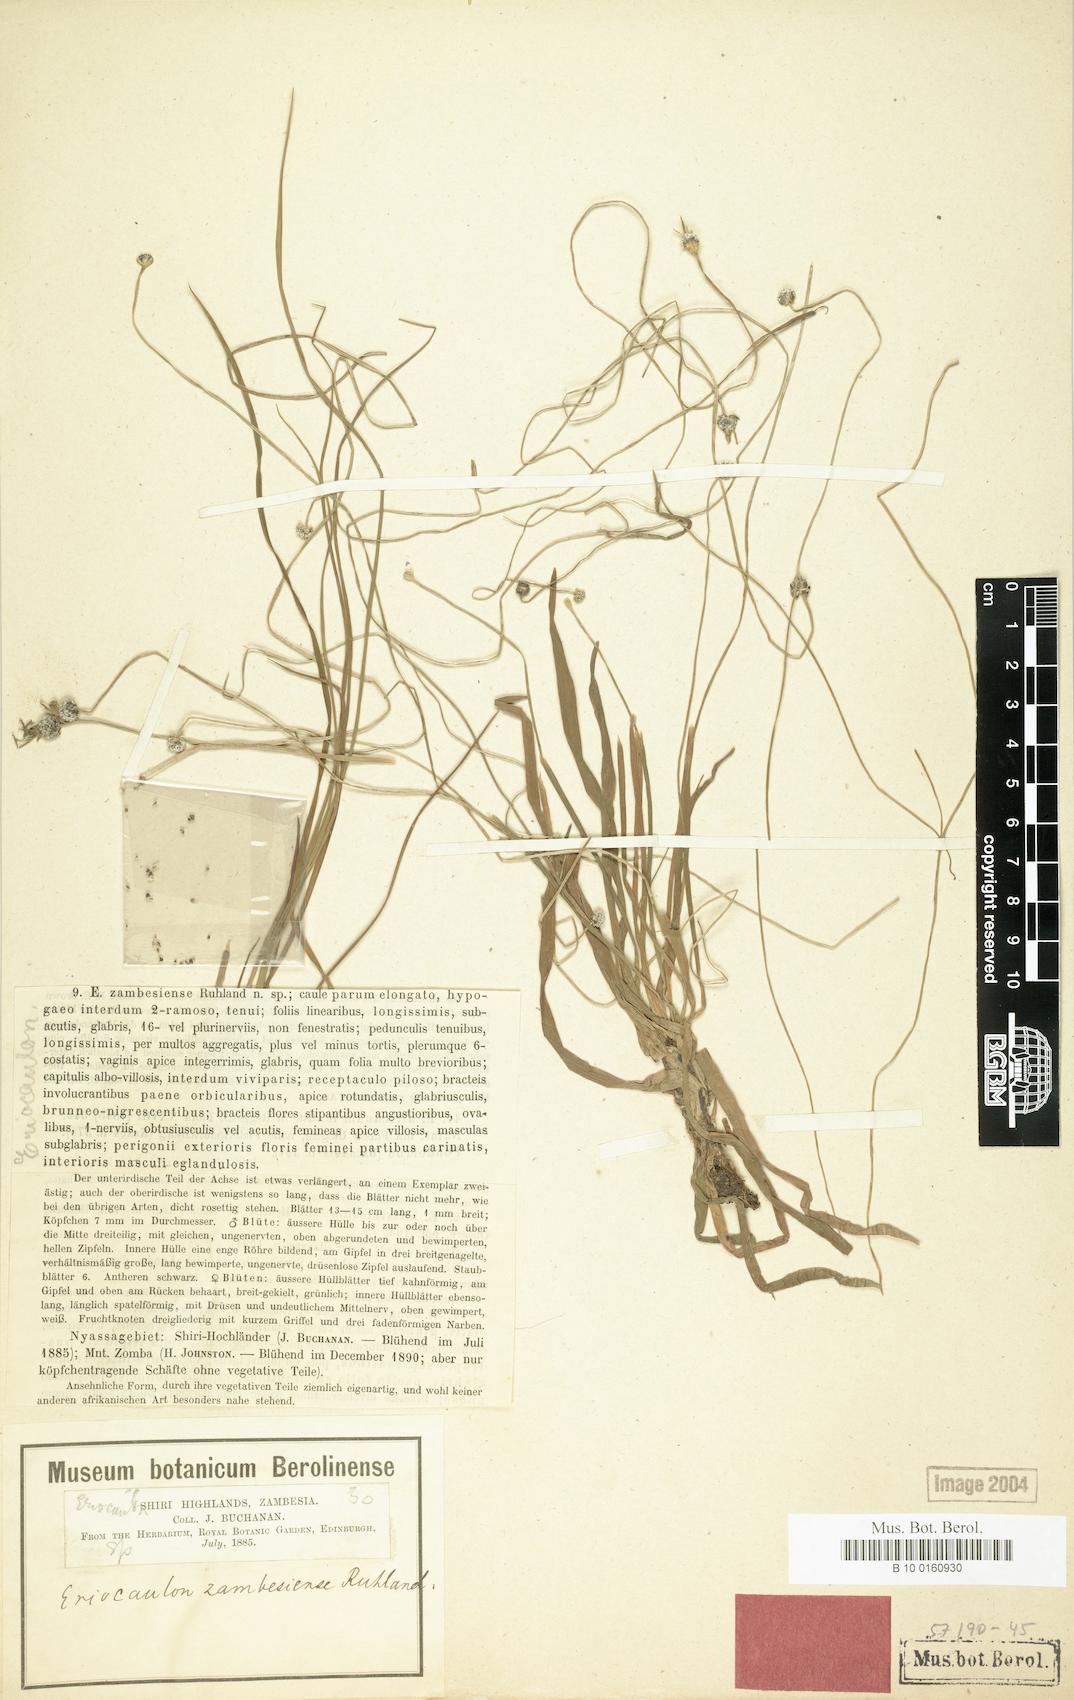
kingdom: Plantae
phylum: Tracheophyta
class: Liliopsida
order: Poales
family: Eriocaulaceae
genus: Eriocaulon
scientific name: Eriocaulon zambesiense
